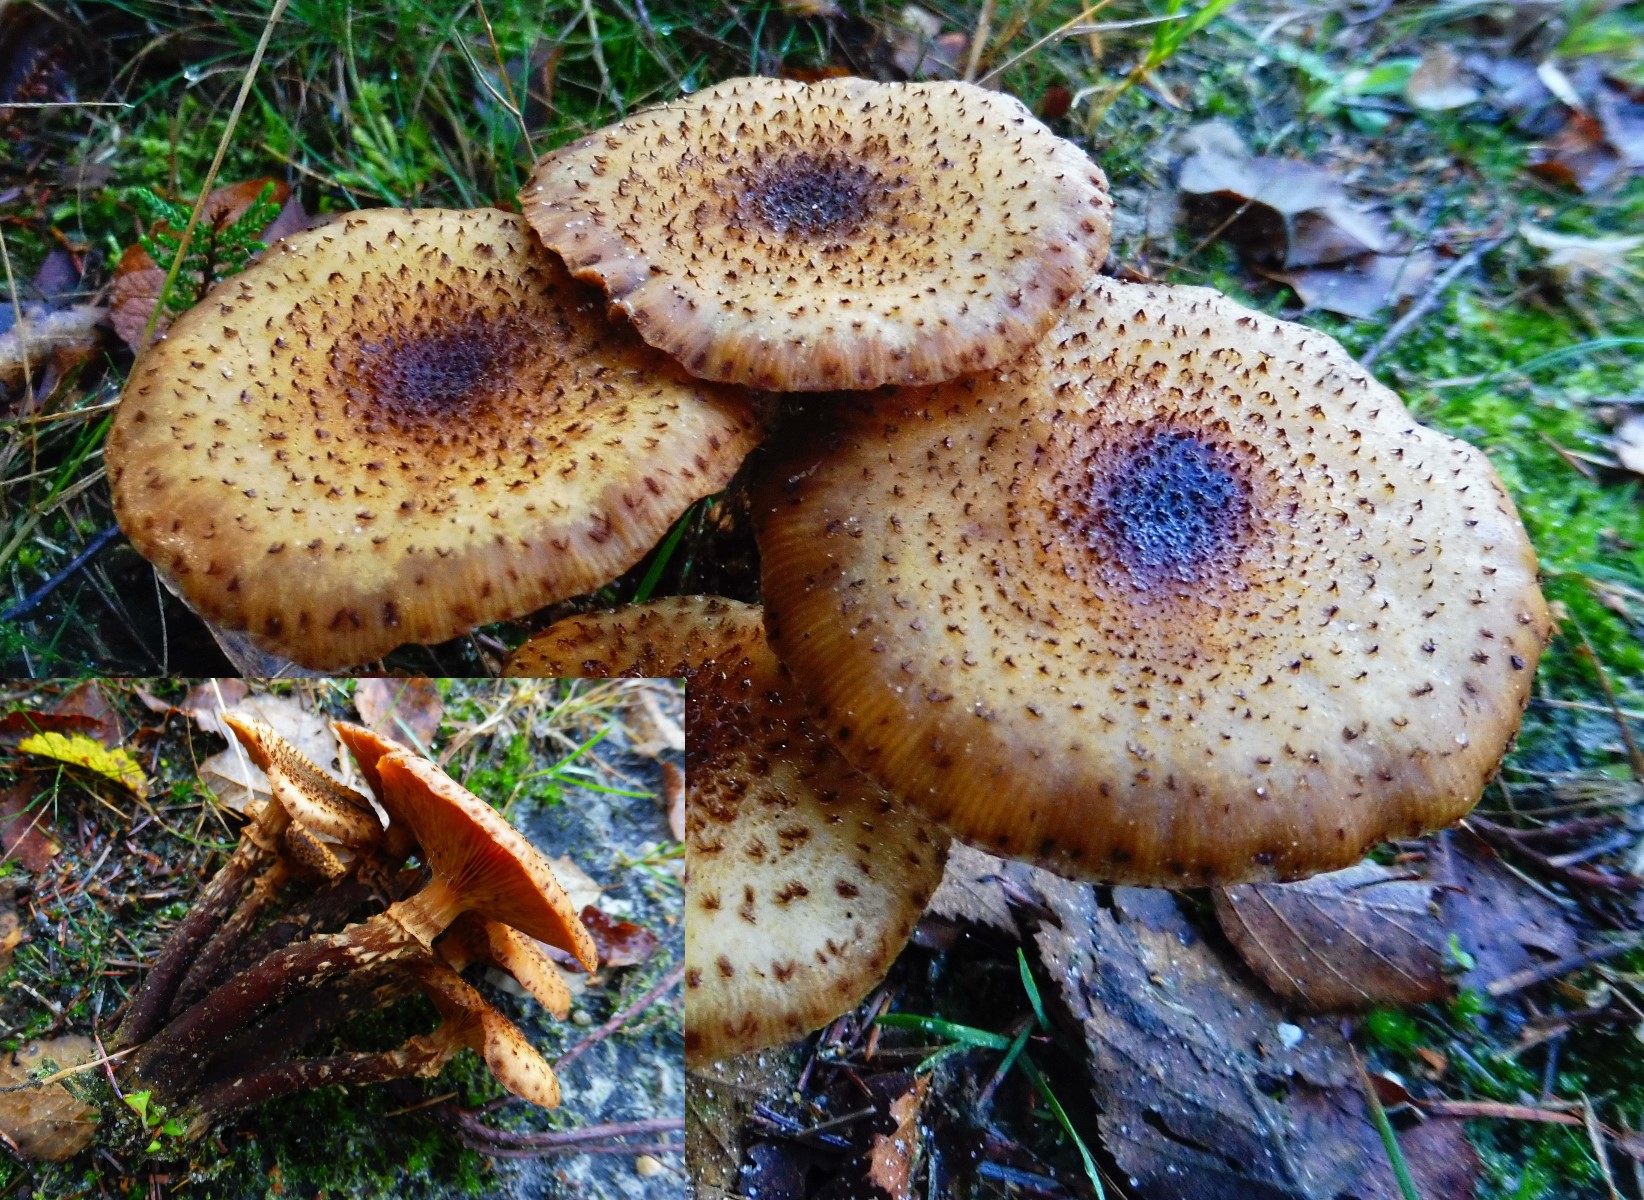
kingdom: Fungi
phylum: Basidiomycota
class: Agaricomycetes
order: Agaricales
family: Physalacriaceae
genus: Armillaria
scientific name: Armillaria ostoyae
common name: mørk honningsvamp
